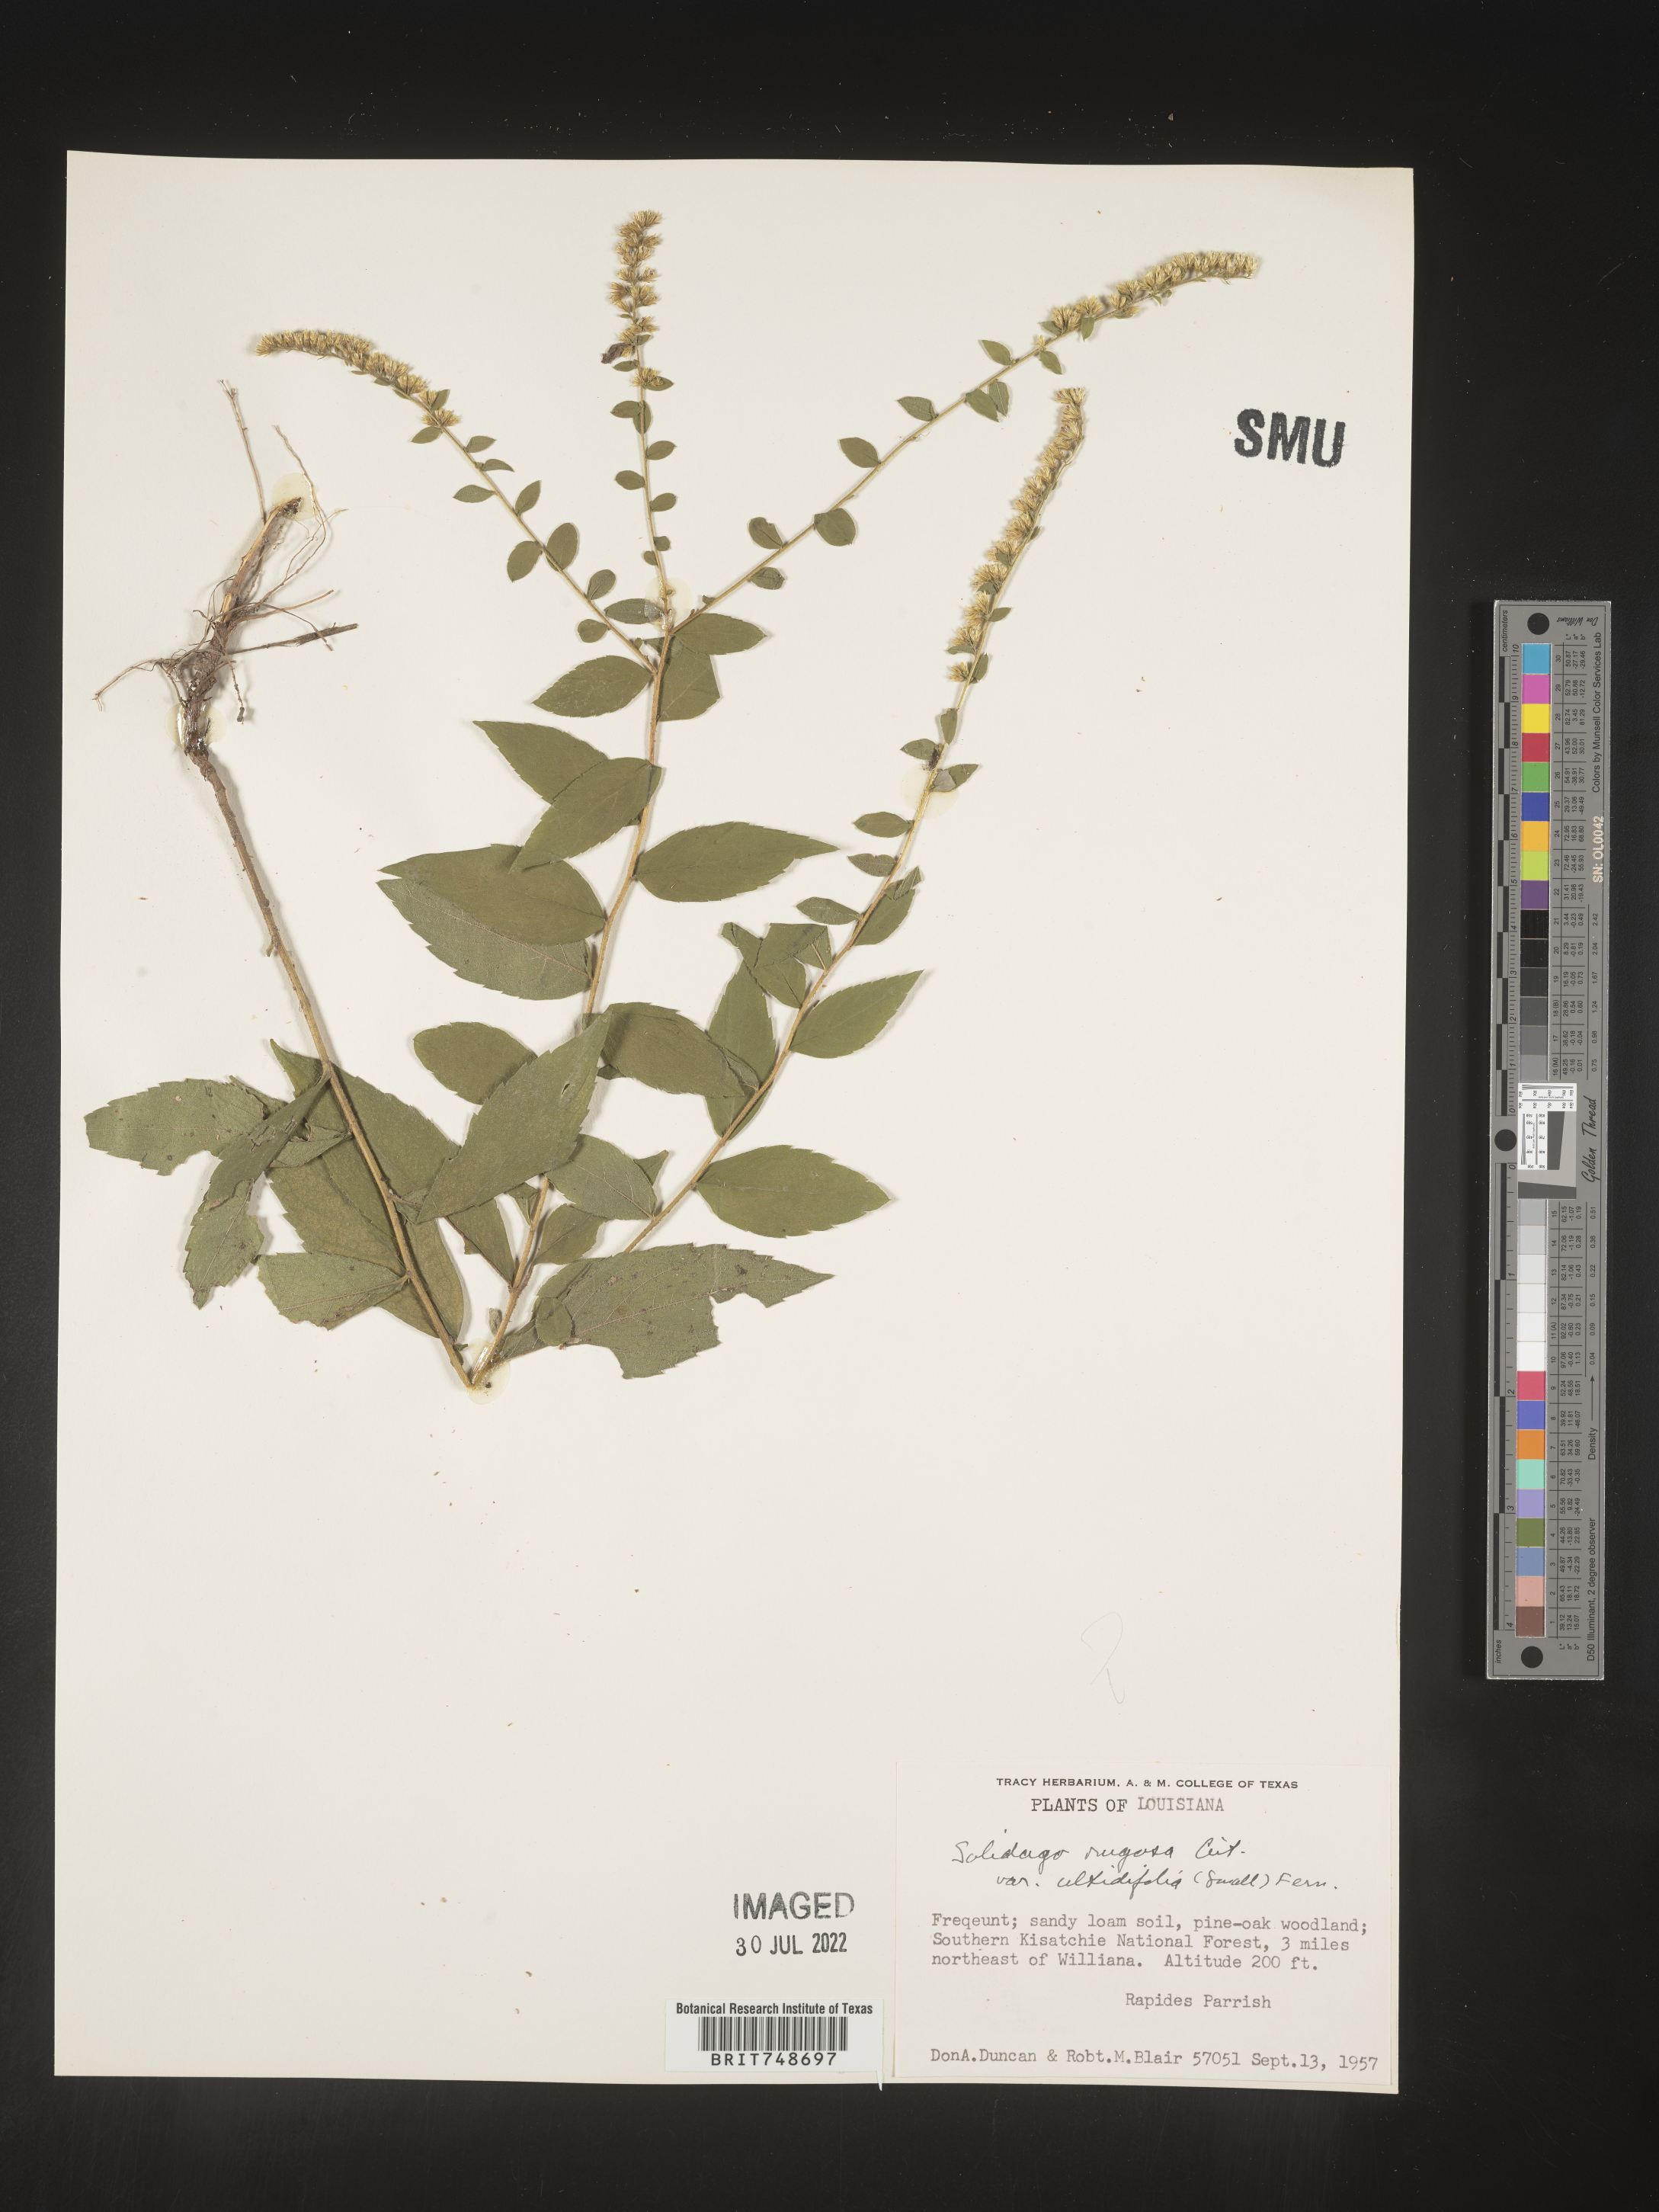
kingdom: Plantae
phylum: Tracheophyta
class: Magnoliopsida
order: Asterales
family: Asteraceae
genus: Solidago
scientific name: Solidago rugosa
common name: Rough-stemmed goldenrod
